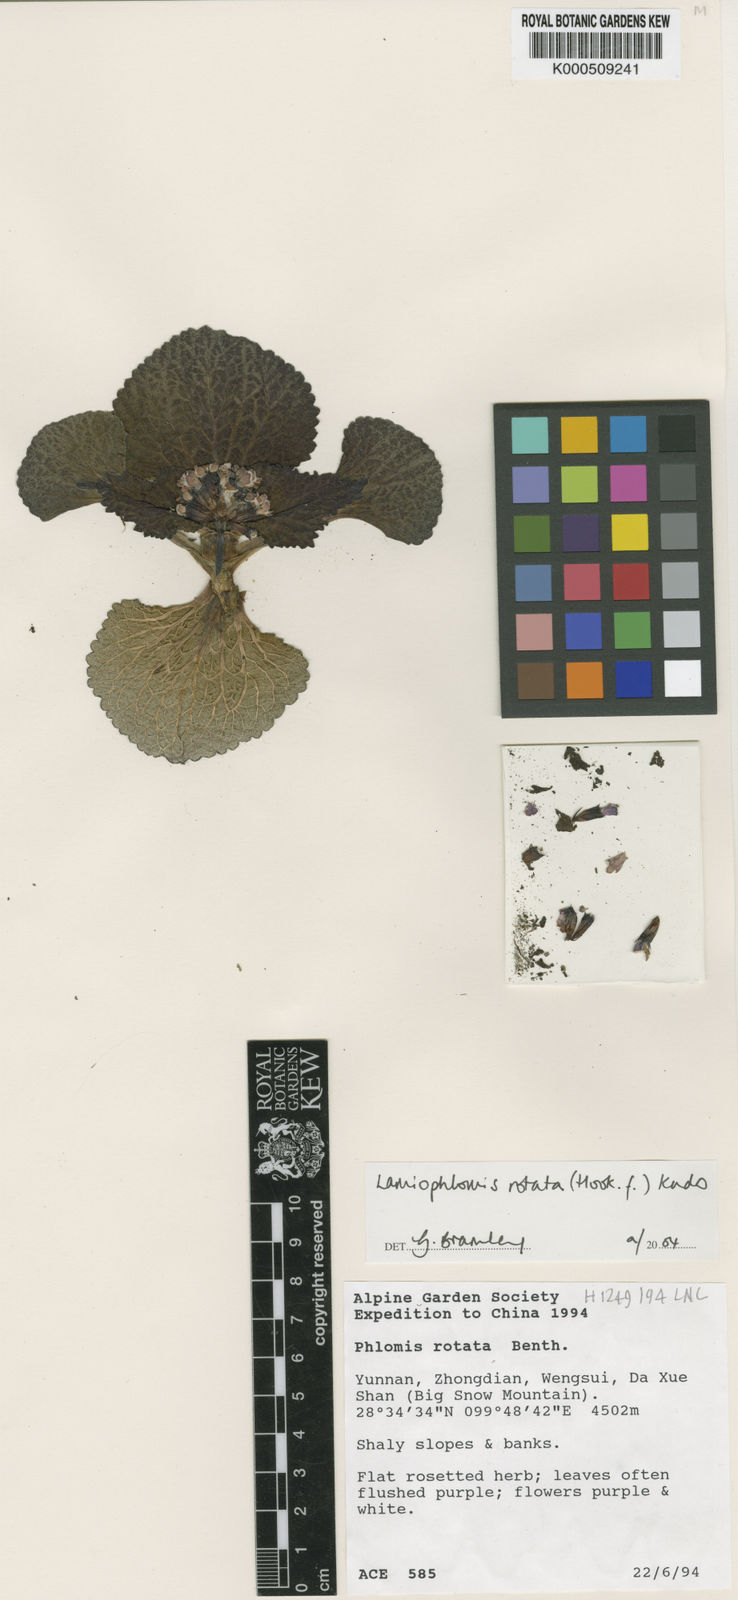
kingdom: Plantae
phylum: Tracheophyta
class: Magnoliopsida
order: Lamiales
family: Lamiaceae
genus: Phlomoides
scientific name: Phlomoides
